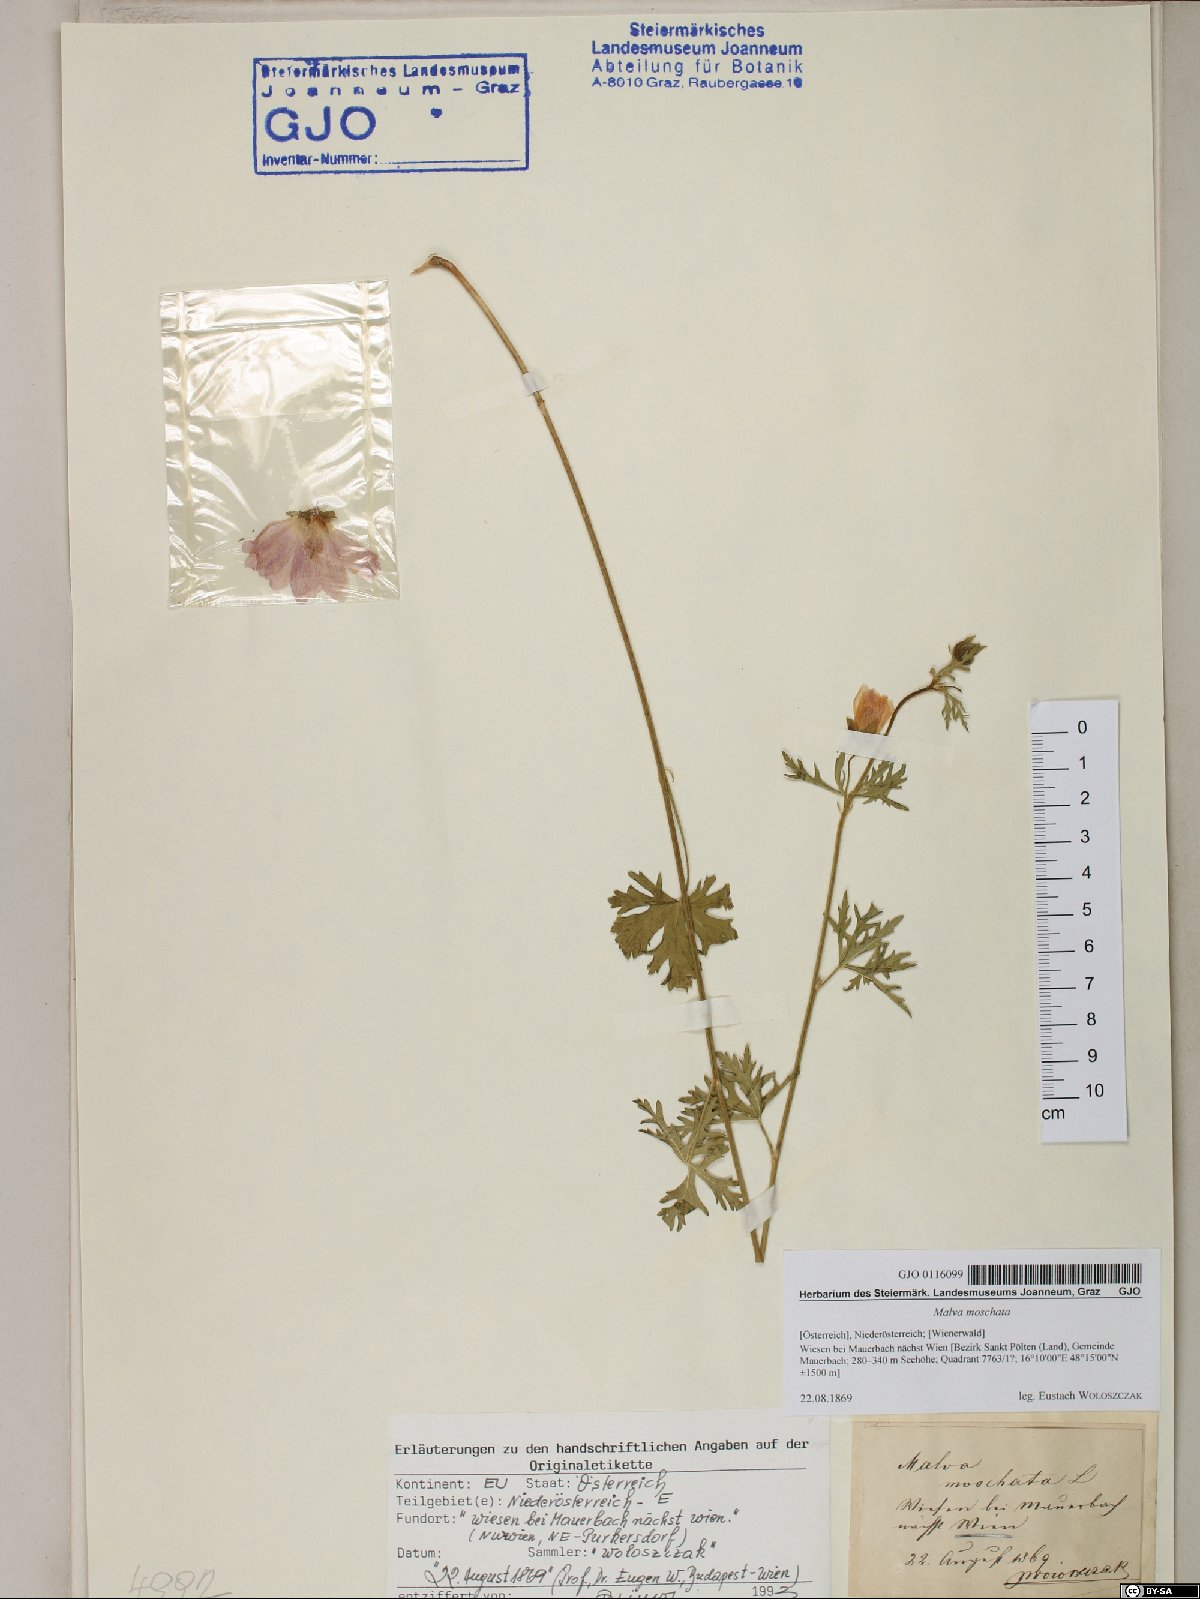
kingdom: Plantae
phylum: Tracheophyta
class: Magnoliopsida
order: Malvales
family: Malvaceae
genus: Malva
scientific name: Malva moschata
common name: Musk mallow
